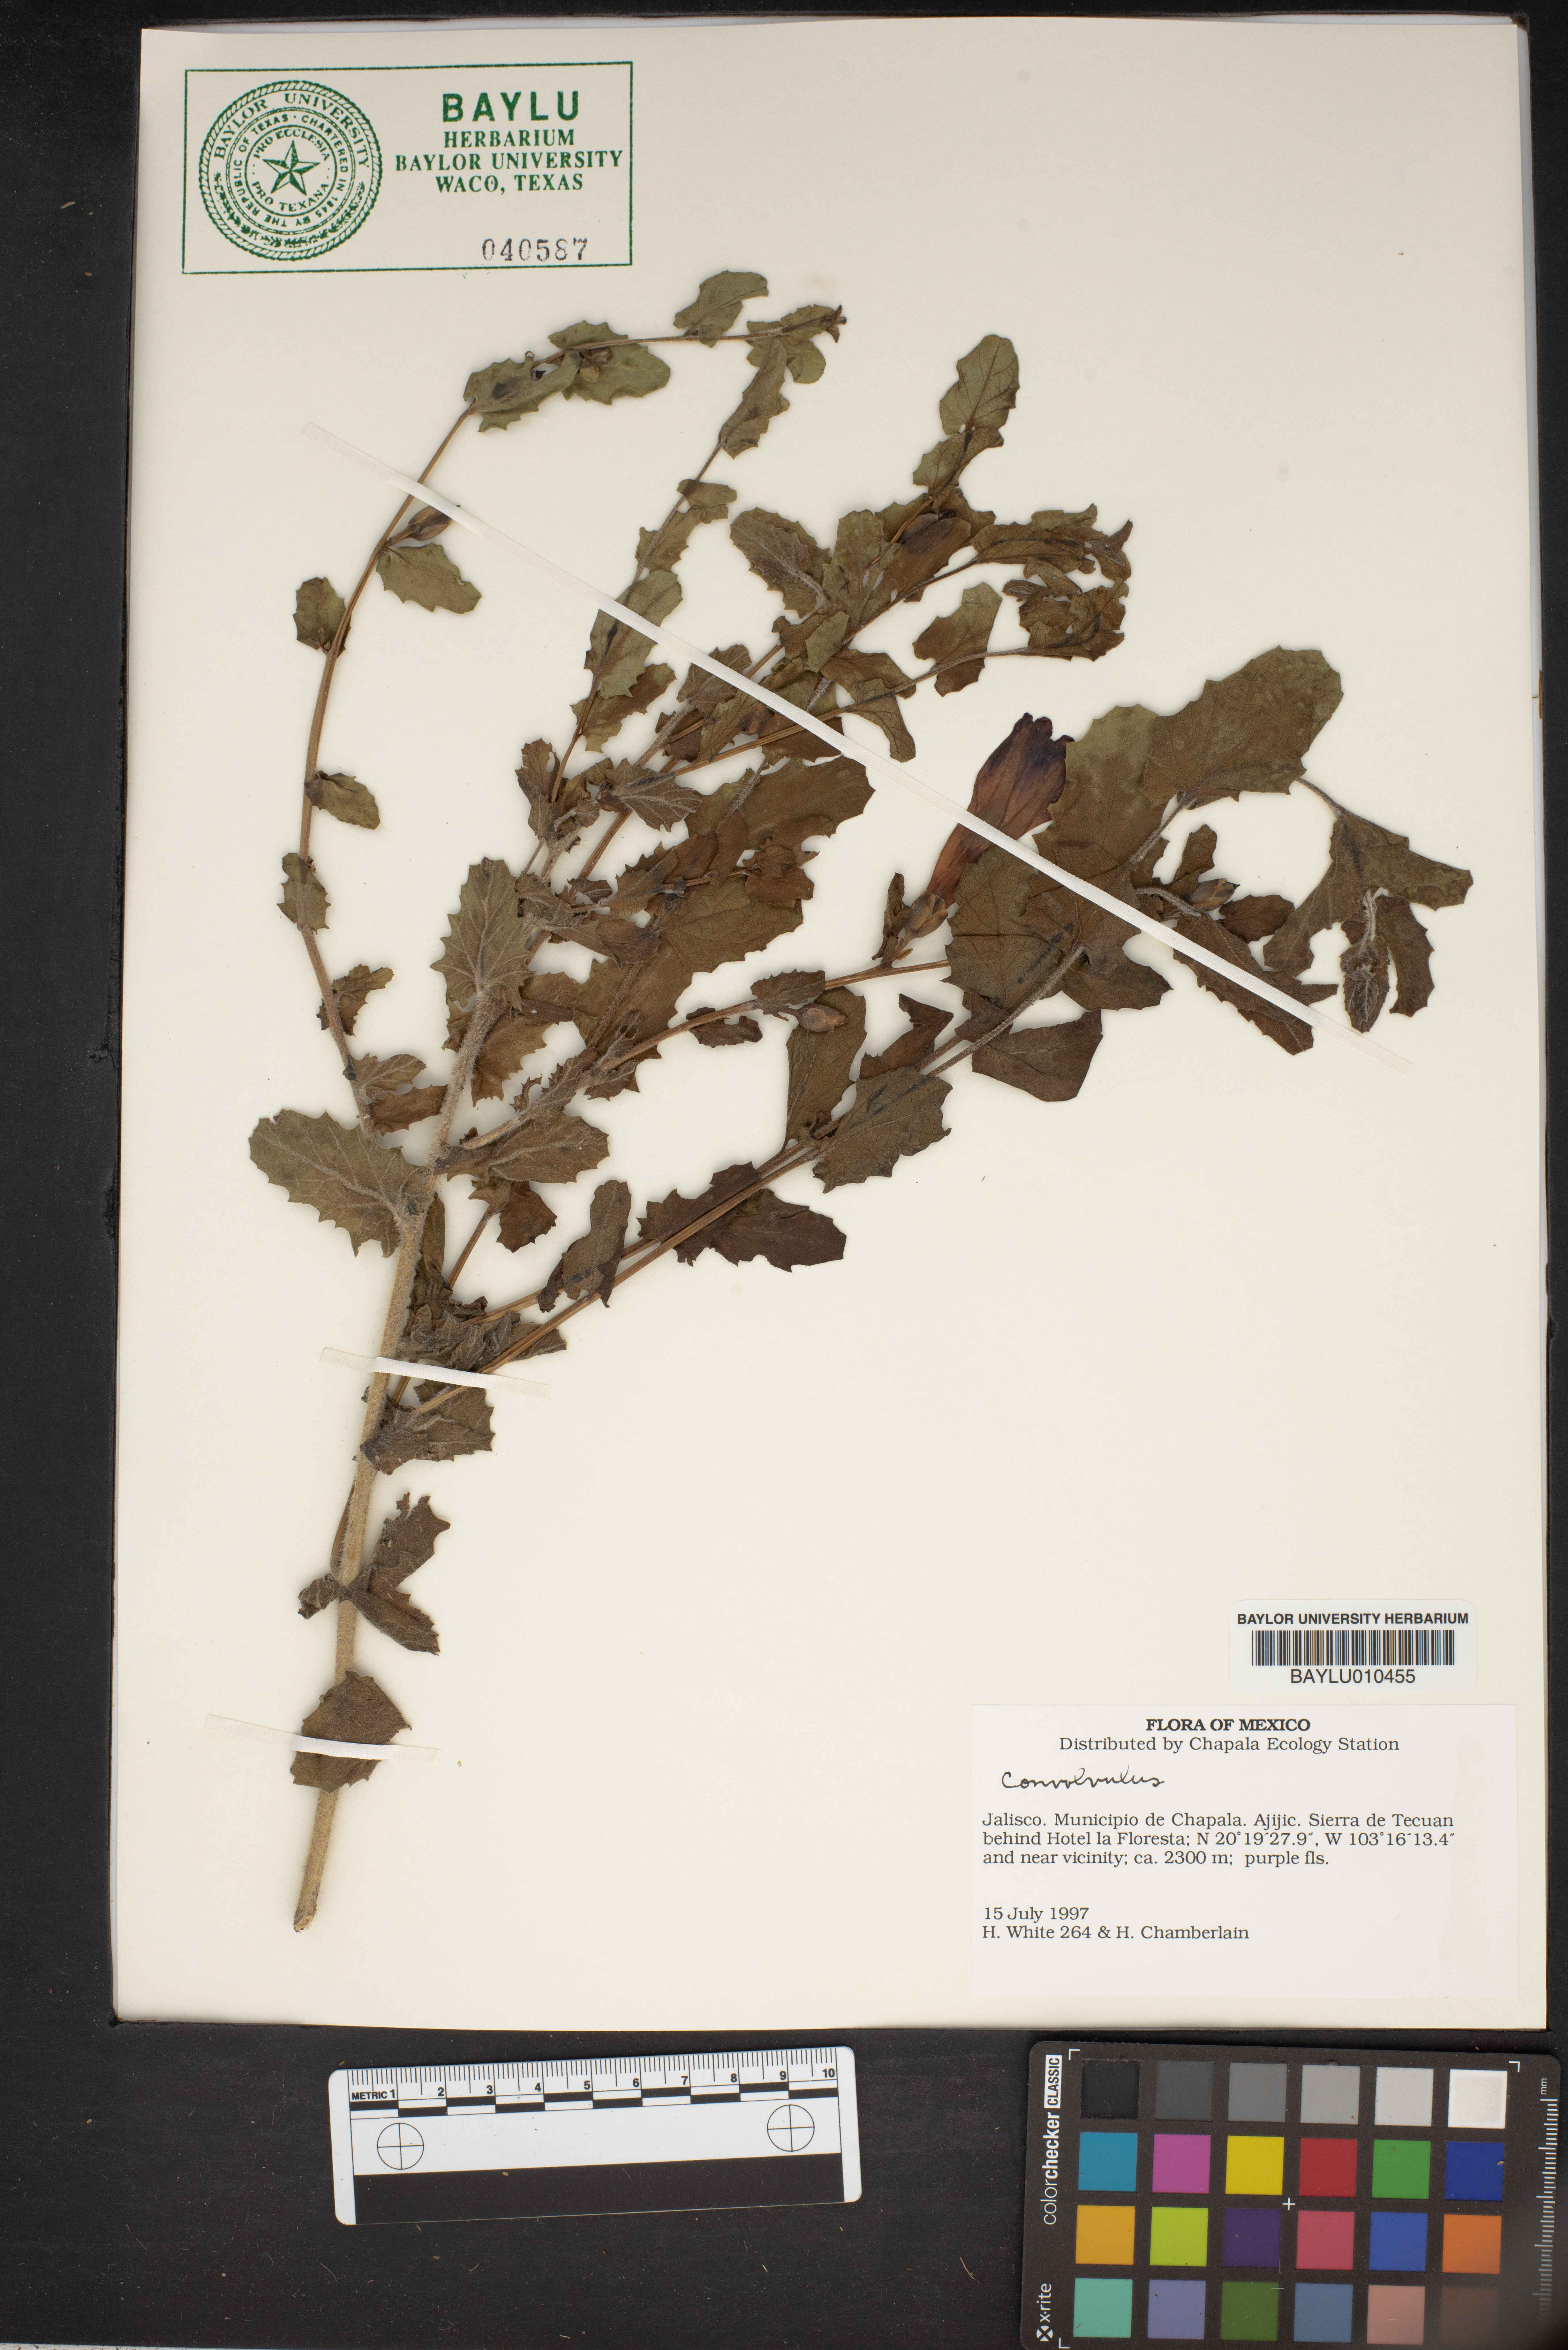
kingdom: Plantae
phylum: Tracheophyta
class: Magnoliopsida
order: Solanales
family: Convolvulaceae
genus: Convolvulus
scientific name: Convolvulus
